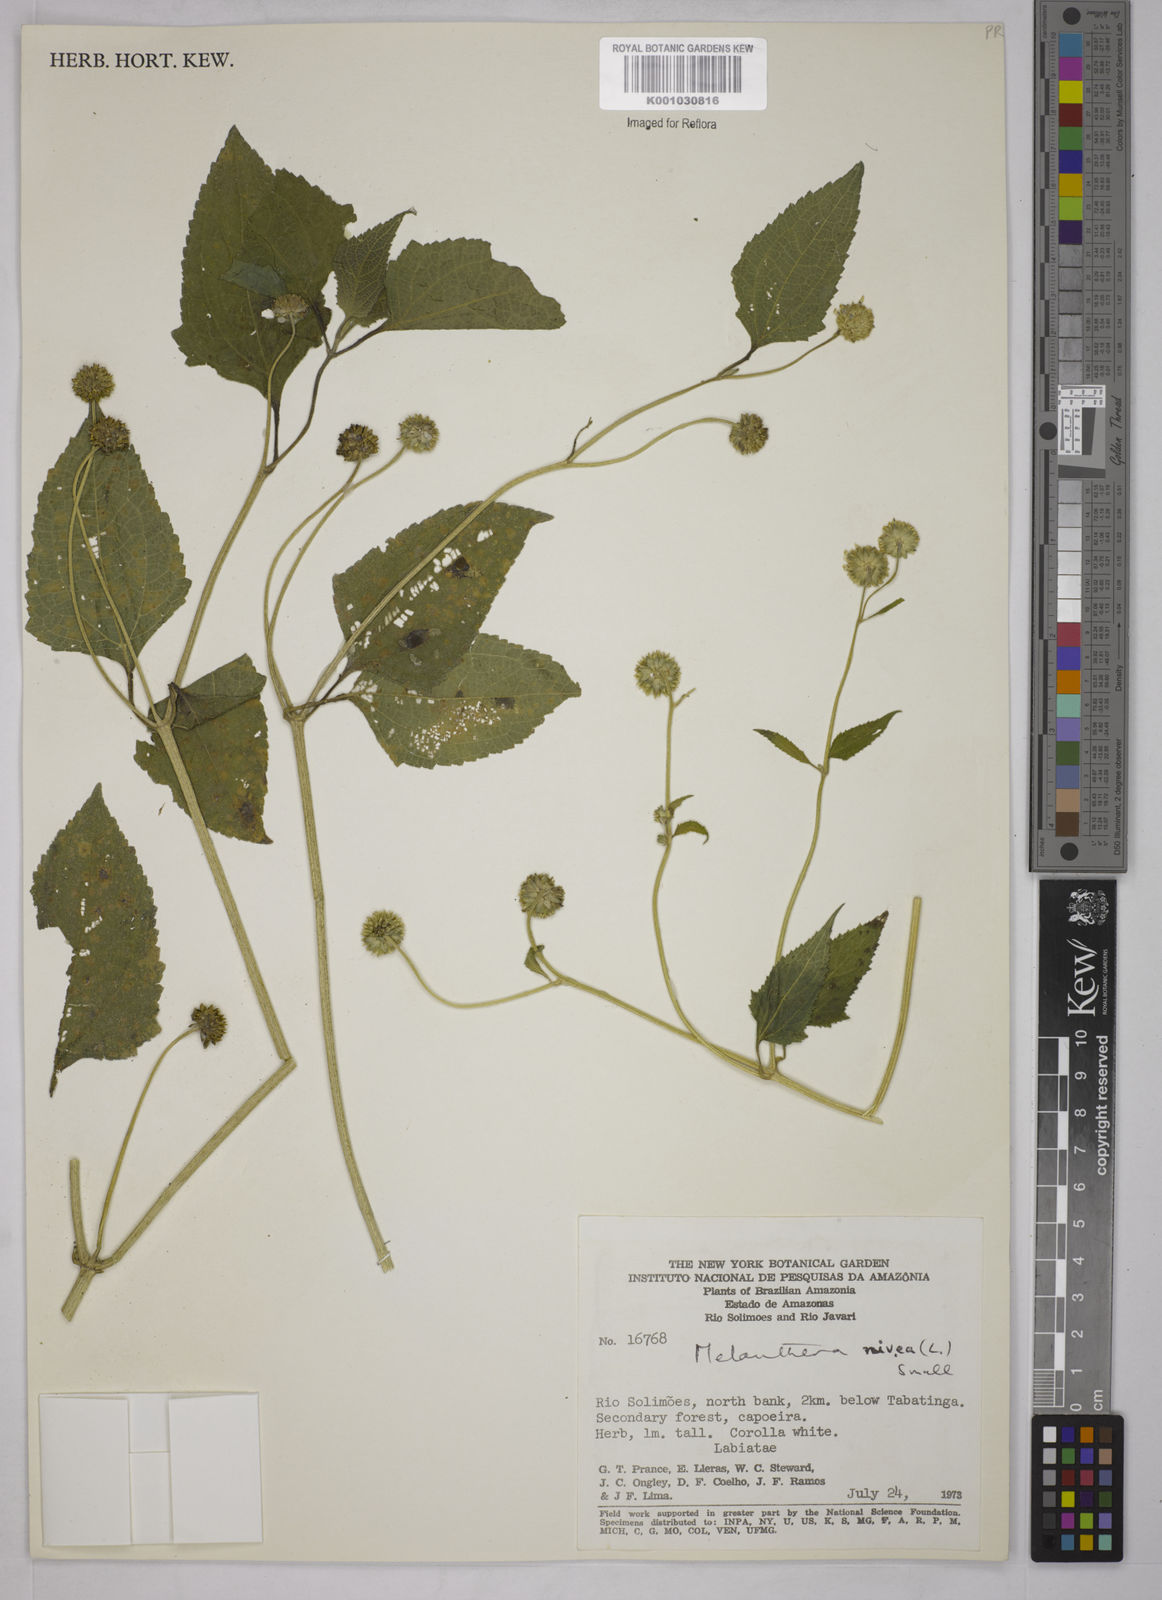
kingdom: Plantae
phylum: Tracheophyta
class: Magnoliopsida
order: Asterales
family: Asteraceae
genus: Melanthera
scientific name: Melanthera nivea
